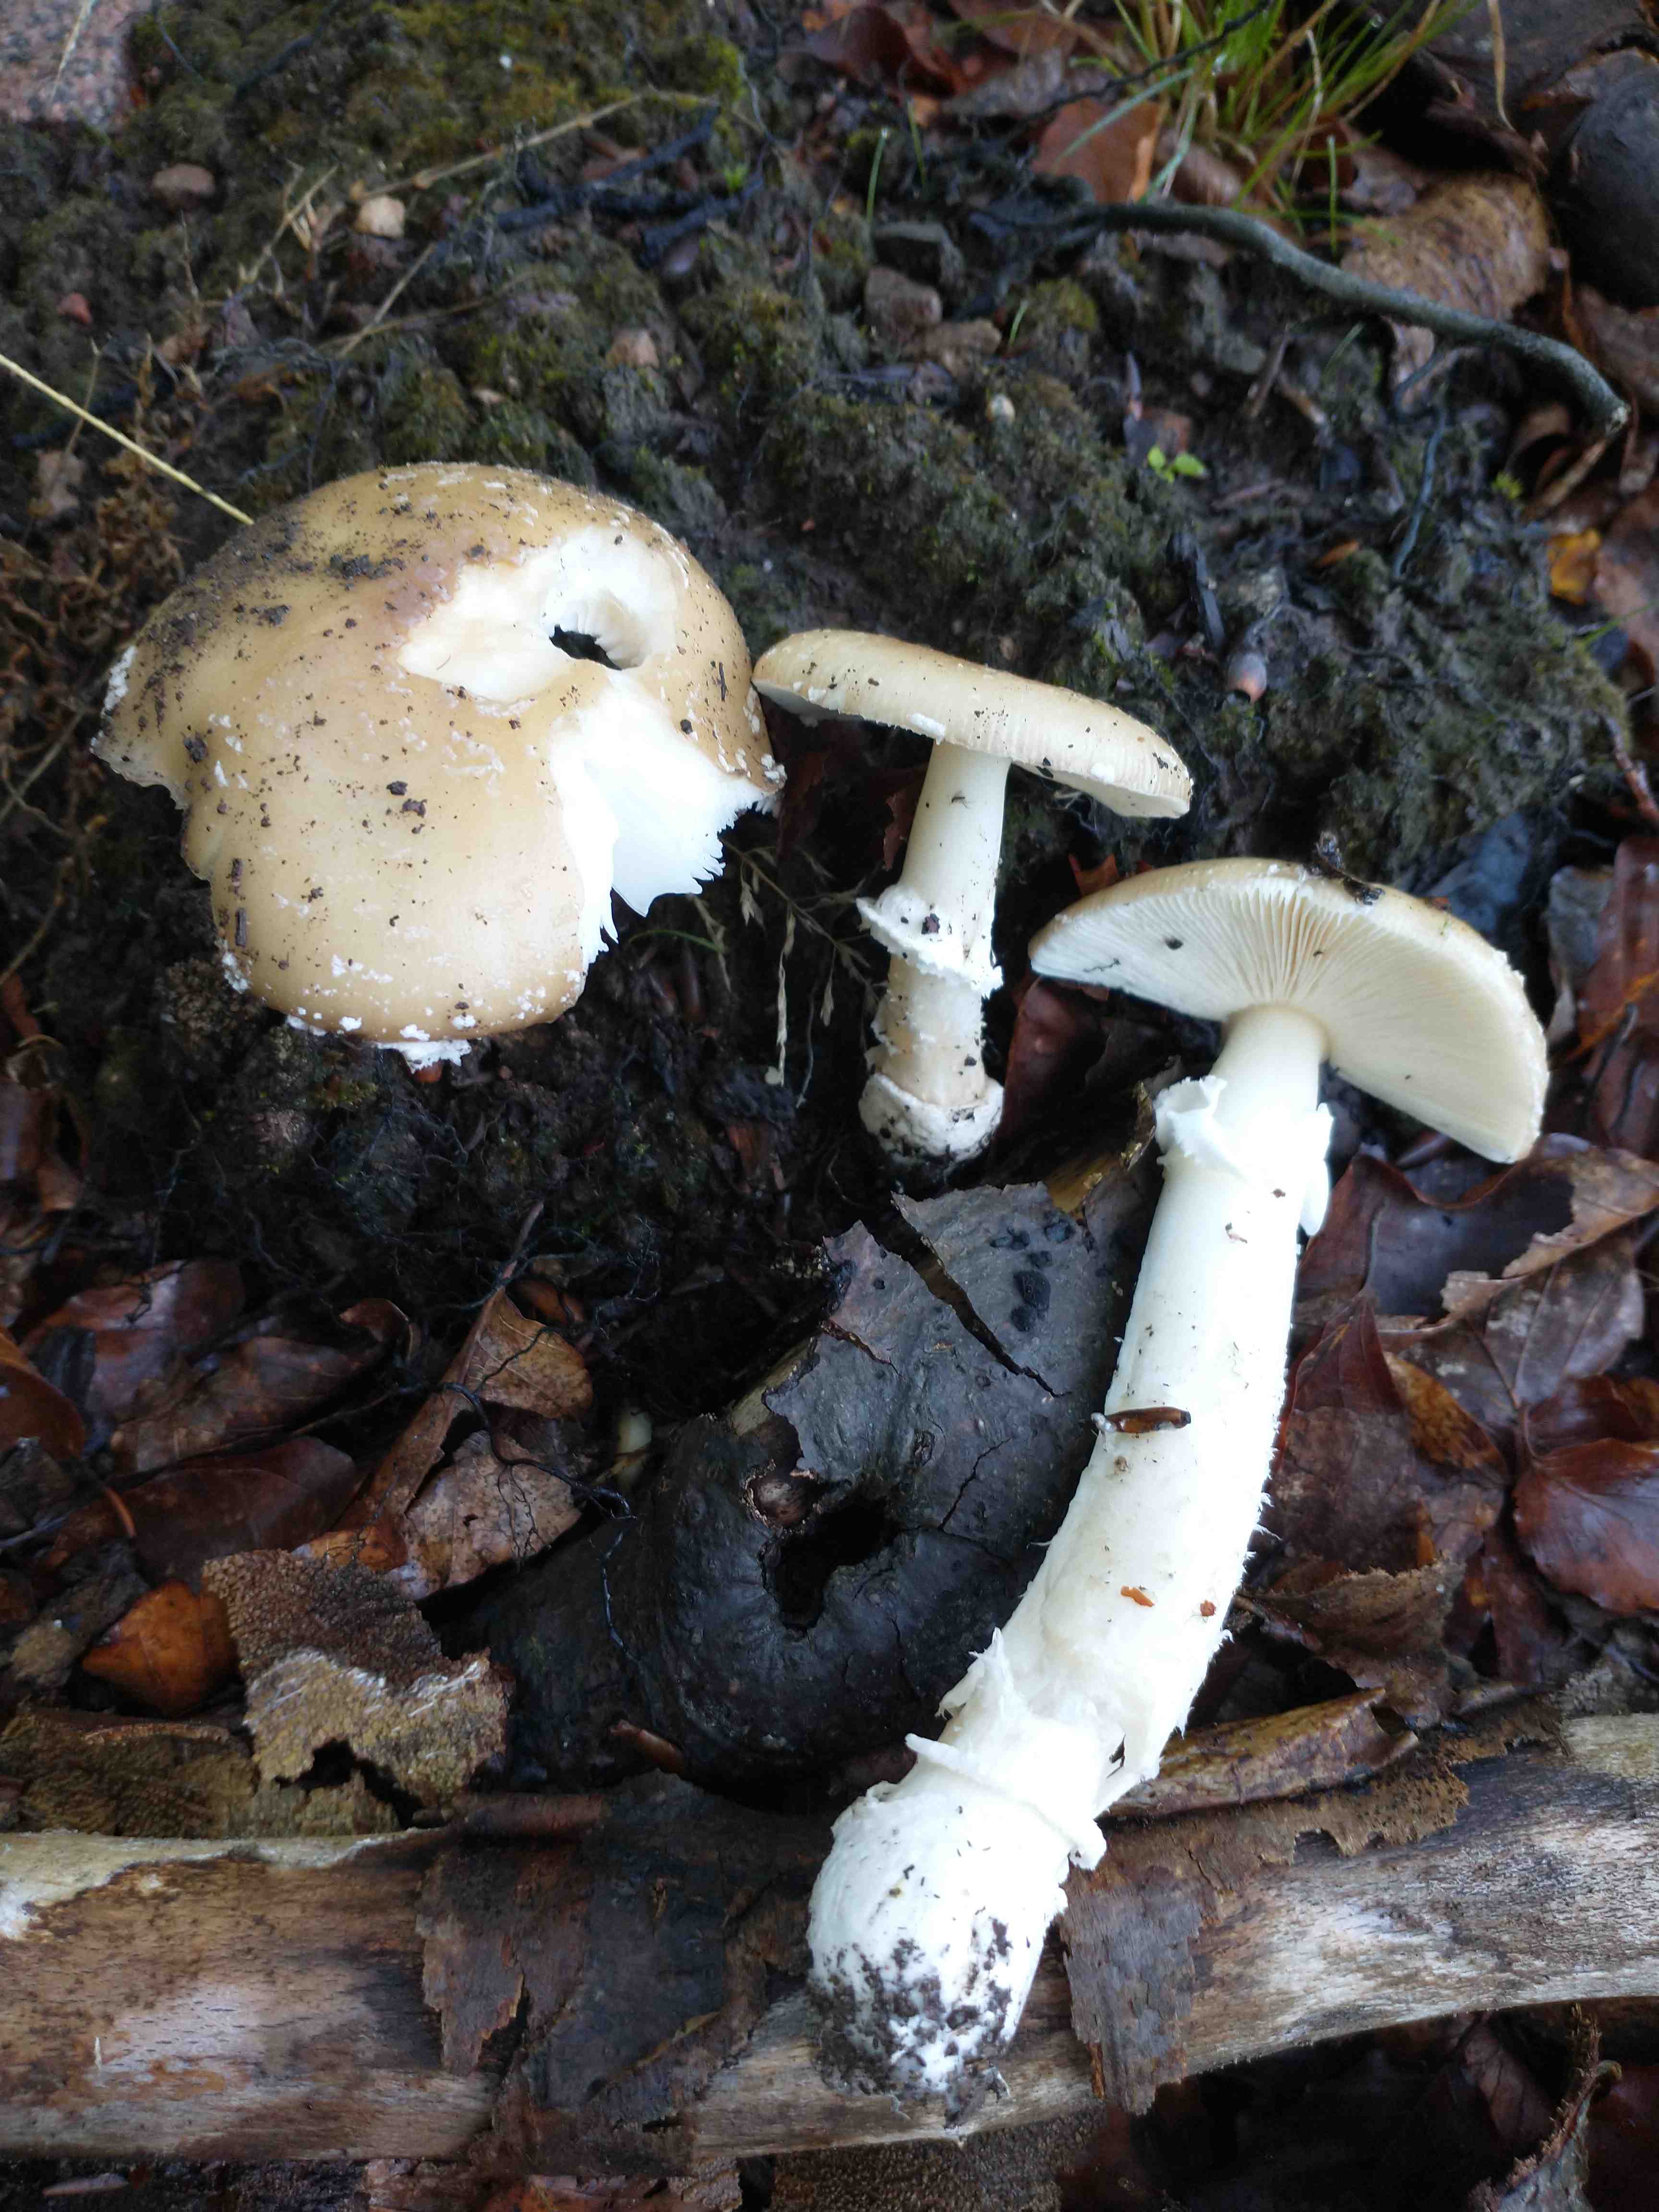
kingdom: Fungi
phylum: Basidiomycota
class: Agaricomycetes
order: Agaricales
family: Amanitaceae
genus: Amanita
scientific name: Amanita pantherina
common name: panter-fluesvamp
